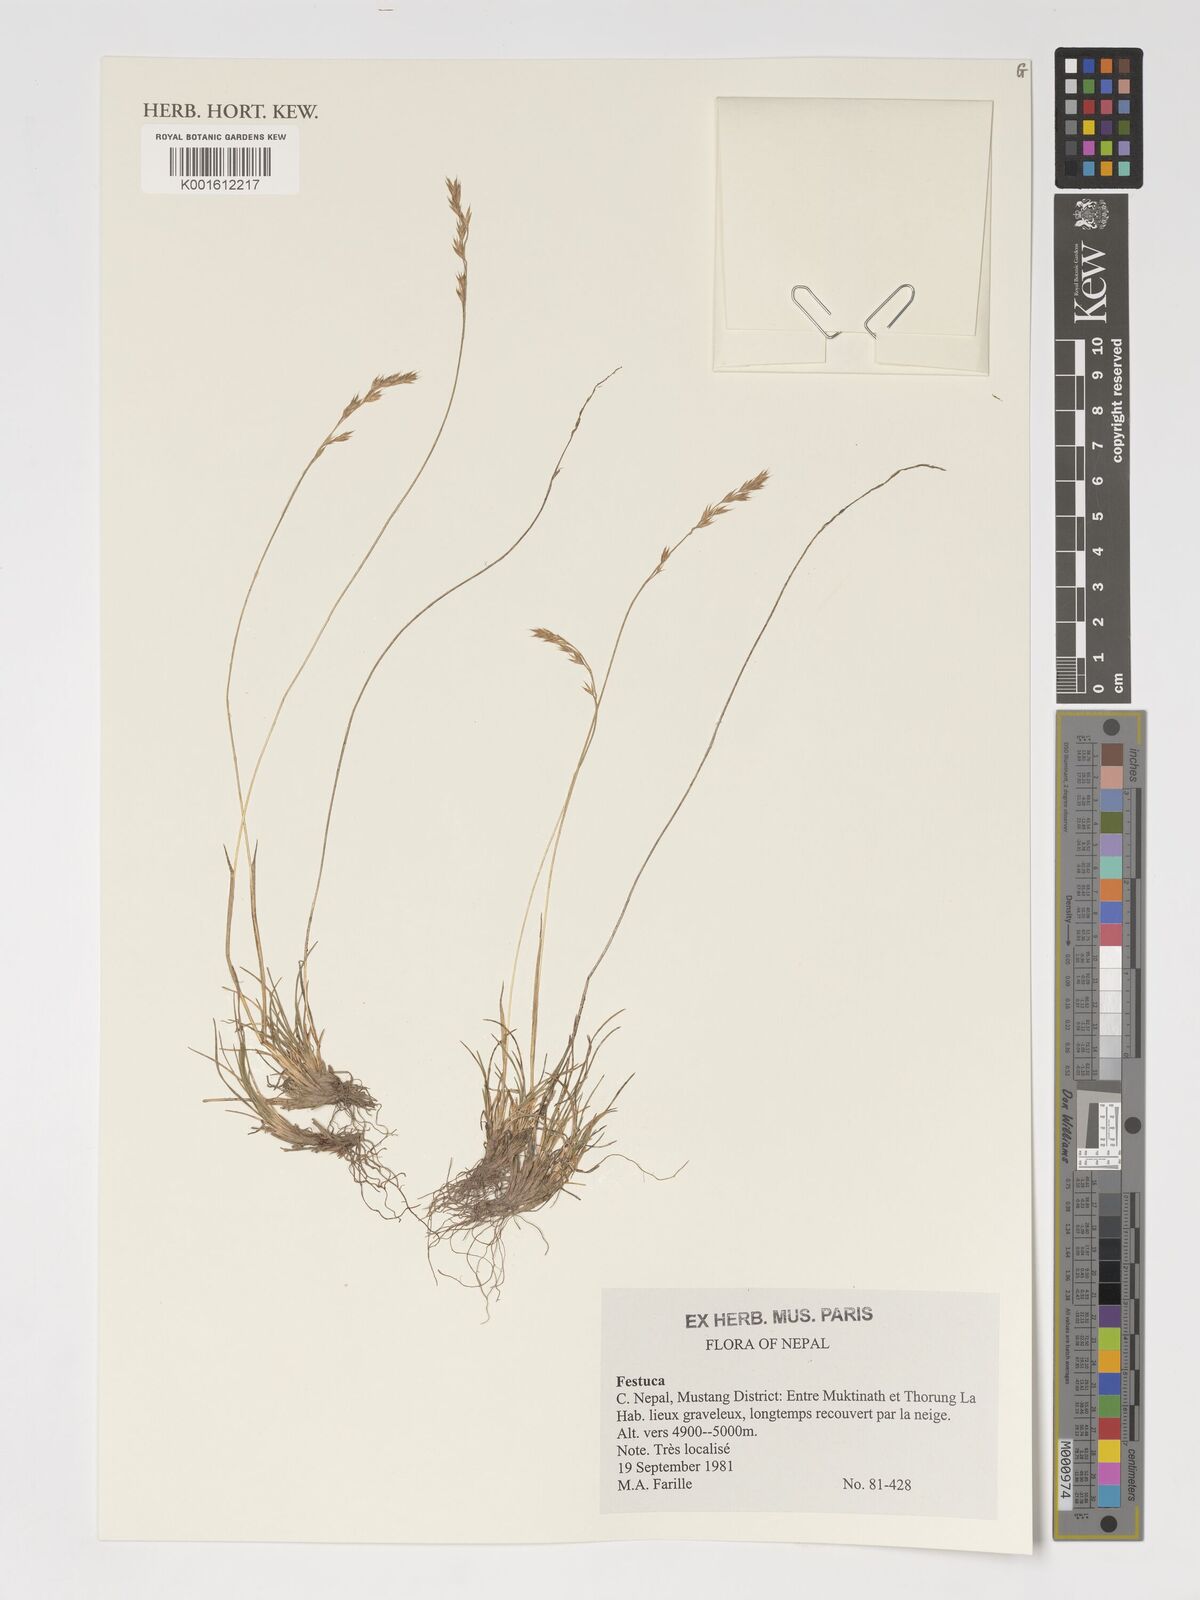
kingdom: Plantae
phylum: Tracheophyta
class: Liliopsida
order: Poales
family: Poaceae
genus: Festuca
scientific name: Festuca
